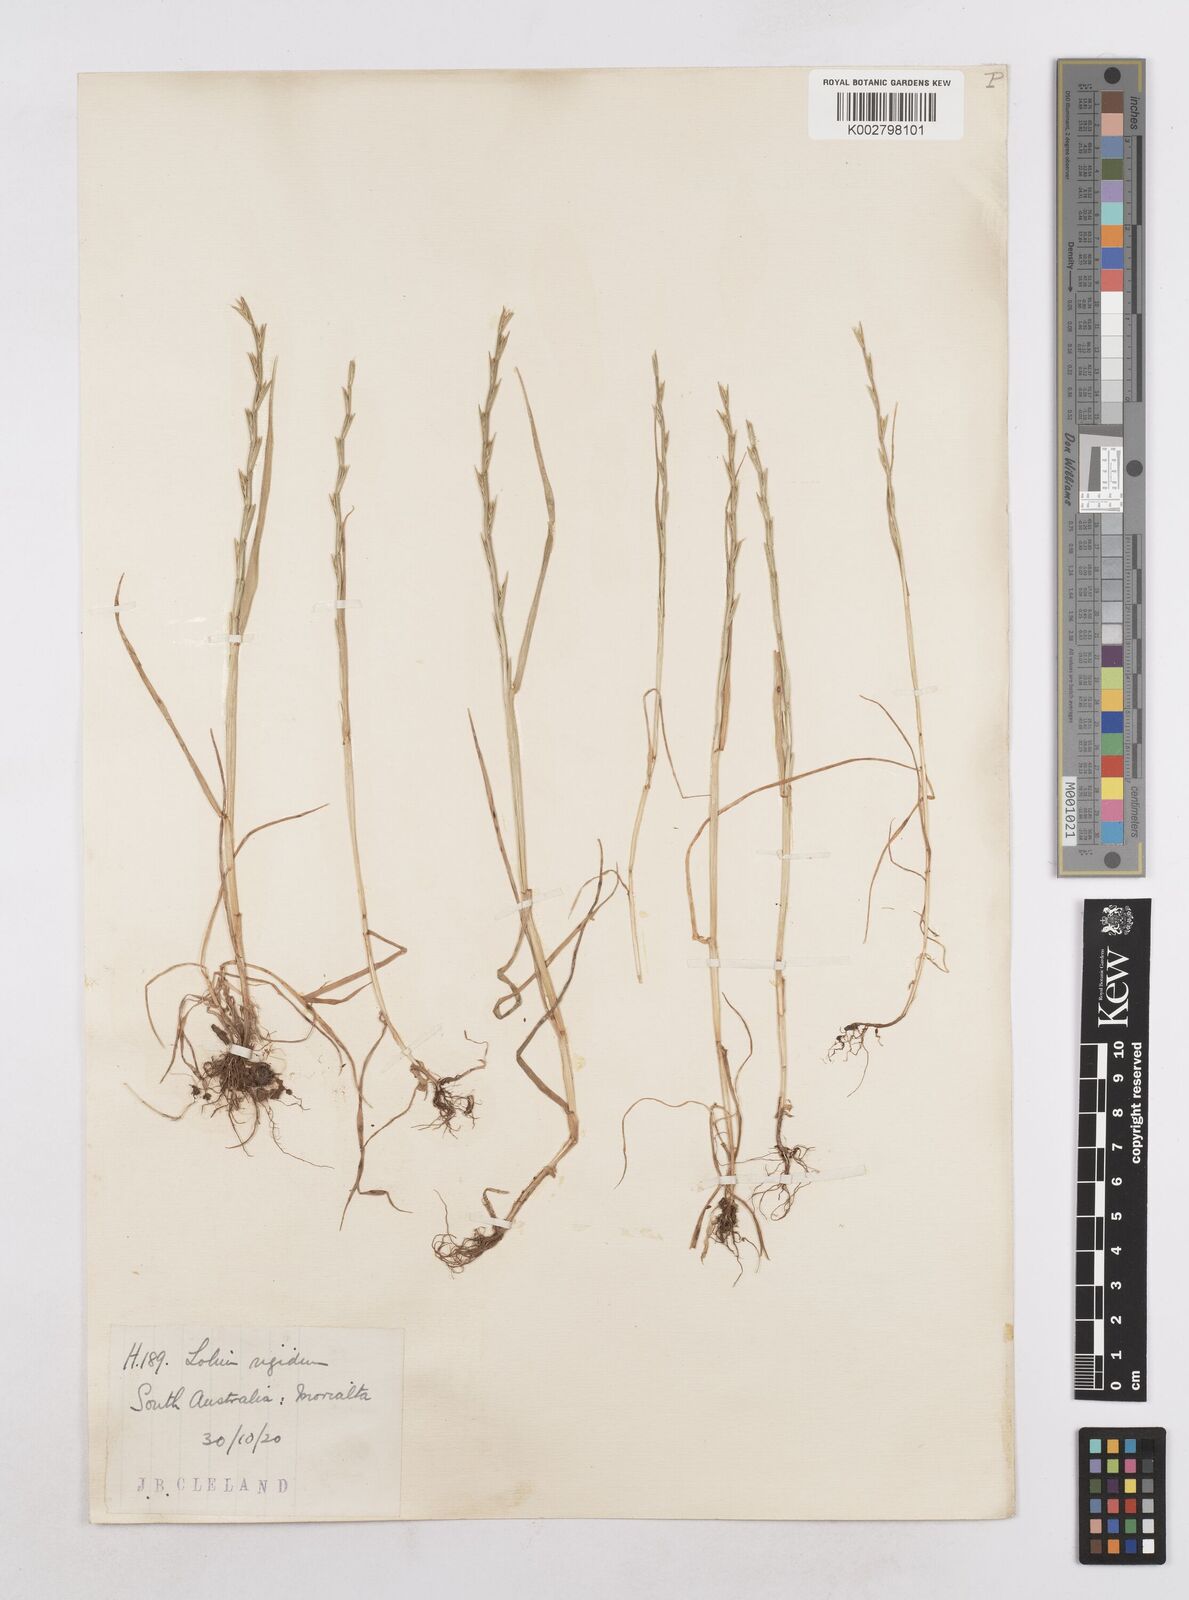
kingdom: Plantae
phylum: Tracheophyta
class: Liliopsida
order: Poales
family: Poaceae
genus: Lolium
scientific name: Lolium
